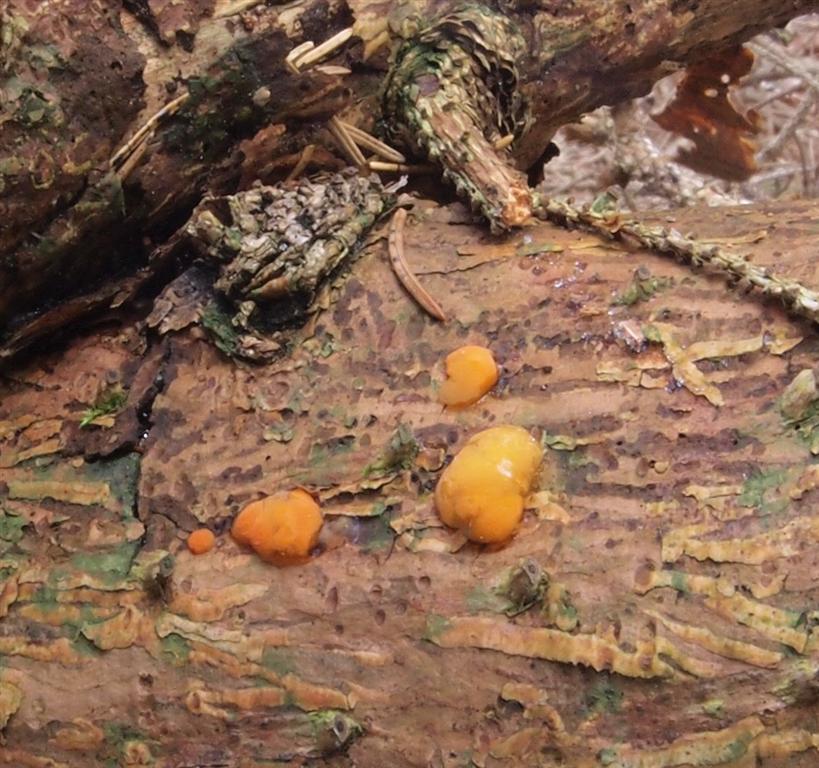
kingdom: Fungi
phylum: Basidiomycota
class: Dacrymycetes
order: Dacrymycetales
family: Dacrymycetaceae
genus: Dacrymyces
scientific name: Dacrymyces stillatus
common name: almindelig tåresvamp
